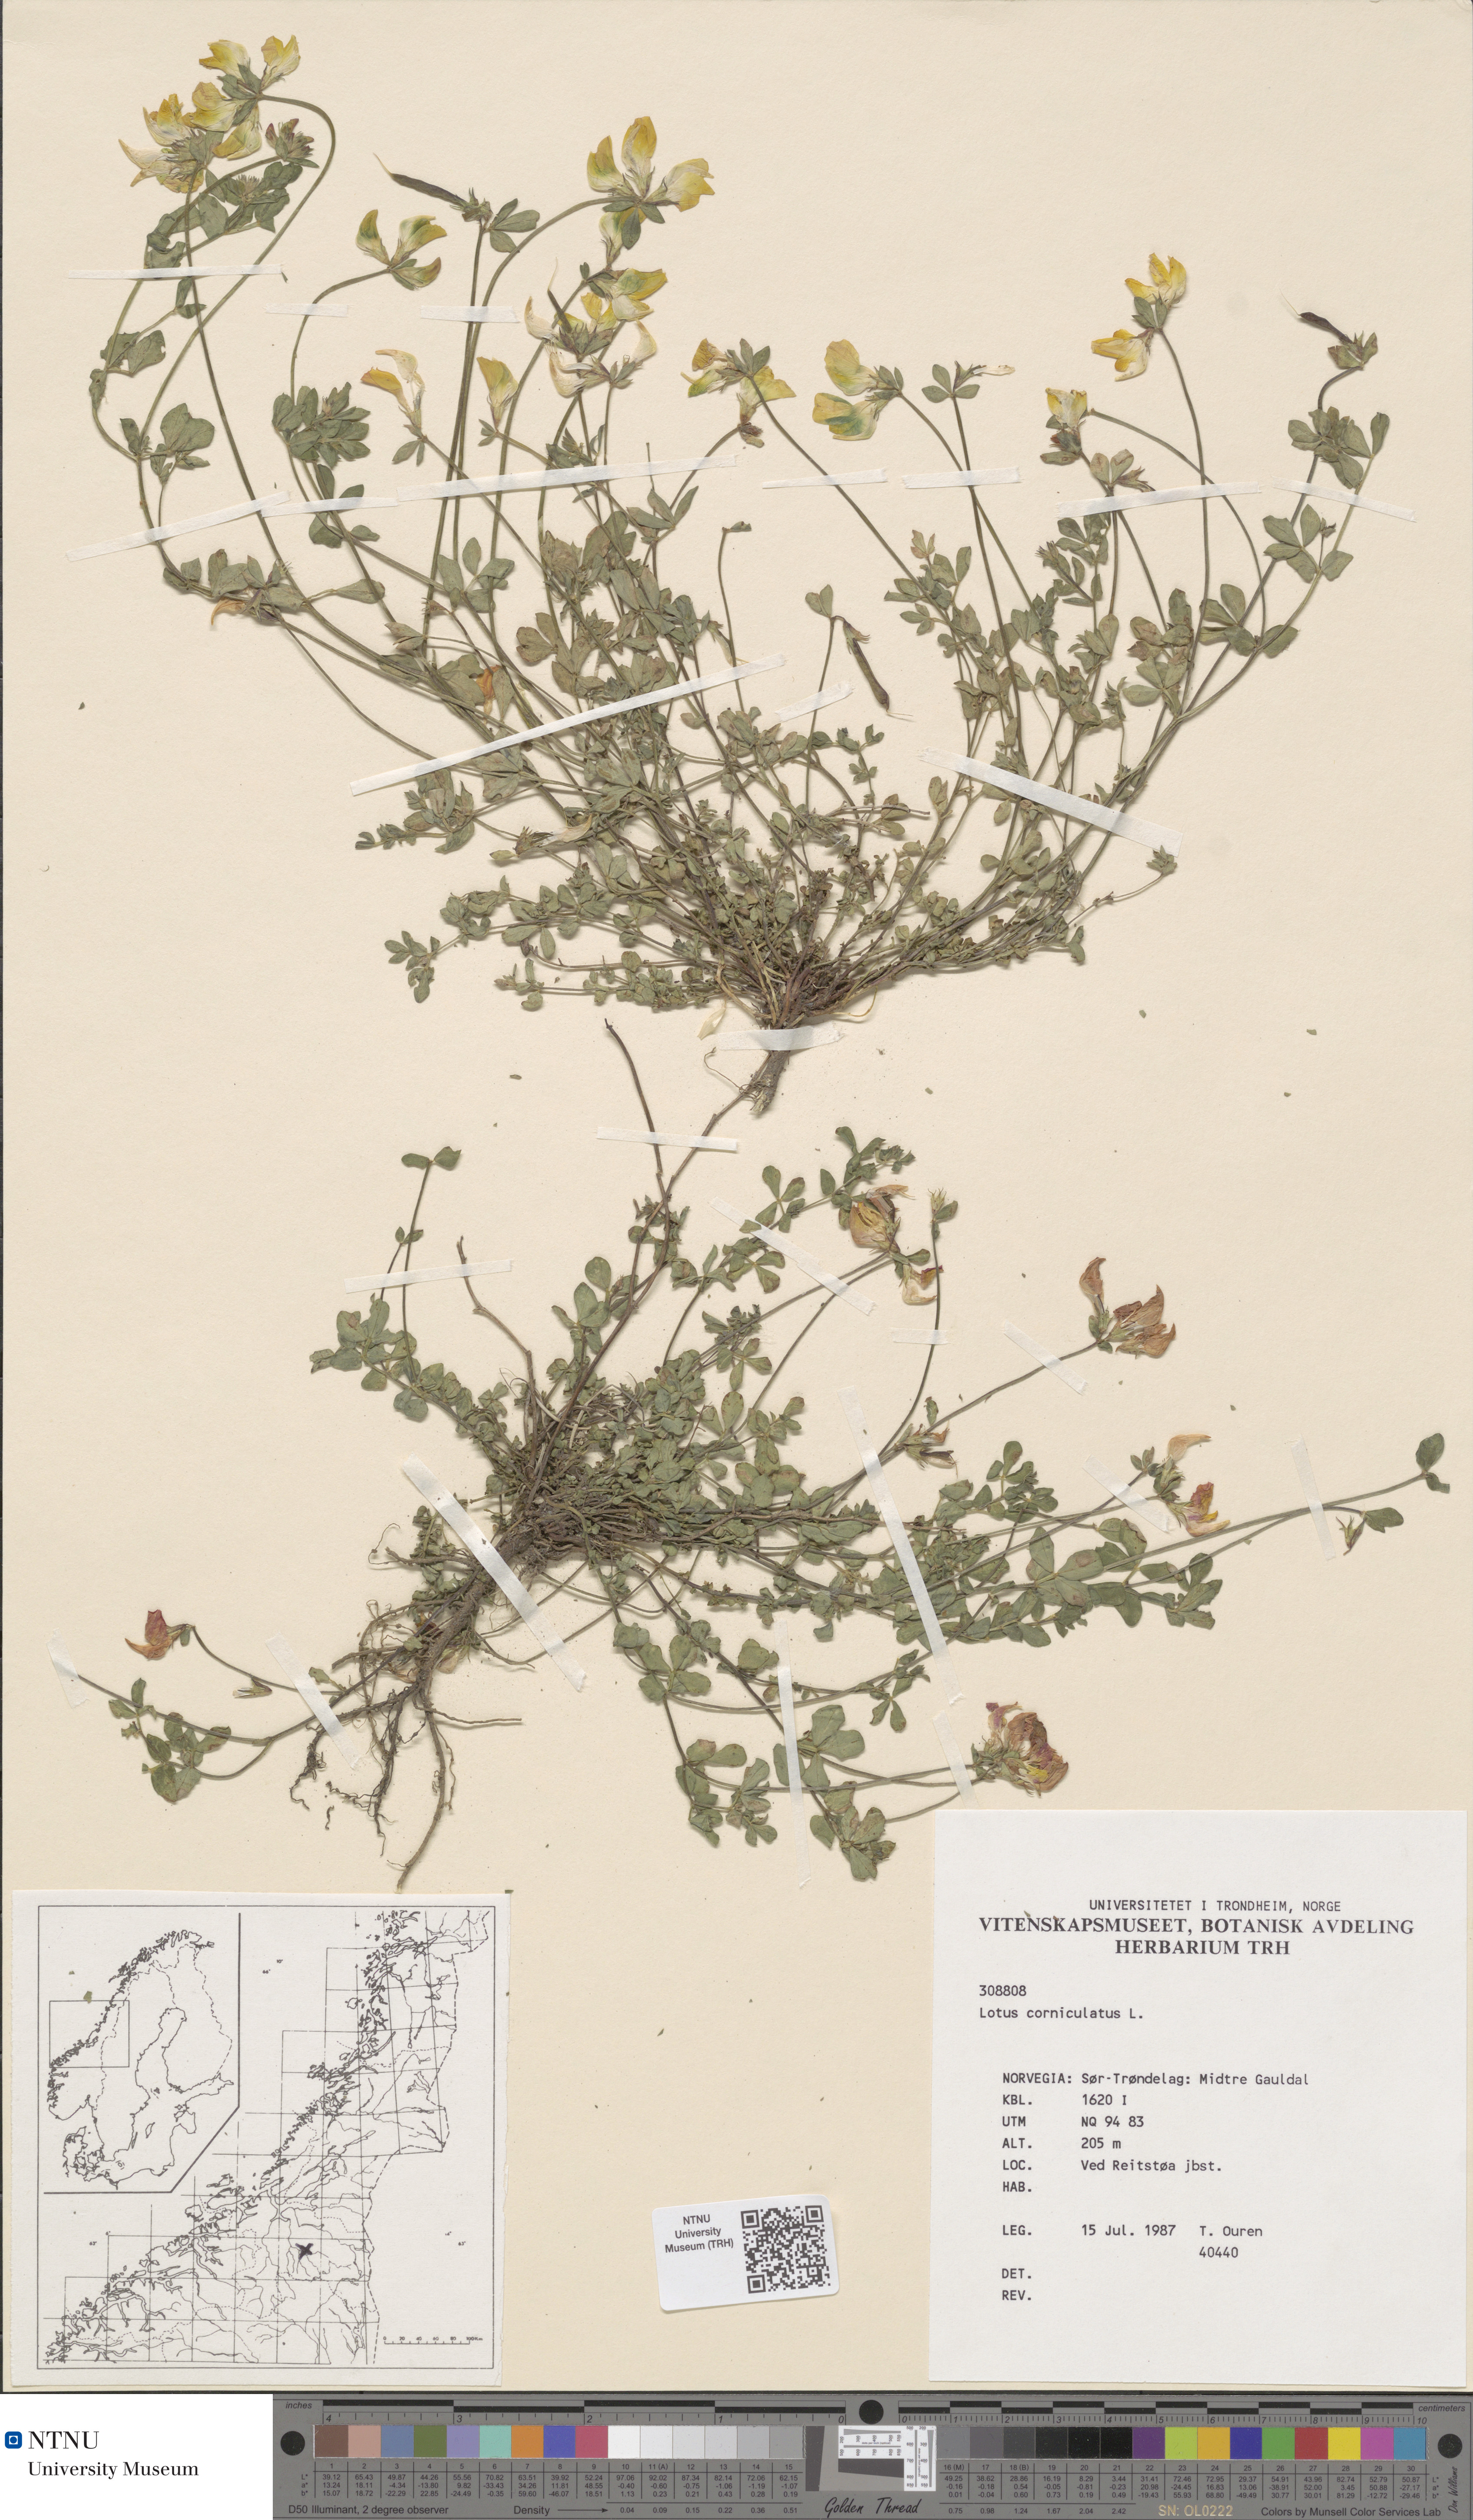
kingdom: Plantae
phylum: Tracheophyta
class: Magnoliopsida
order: Fabales
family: Fabaceae
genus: Lotus
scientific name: Lotus corniculatus
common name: Common bird's-foot-trefoil
